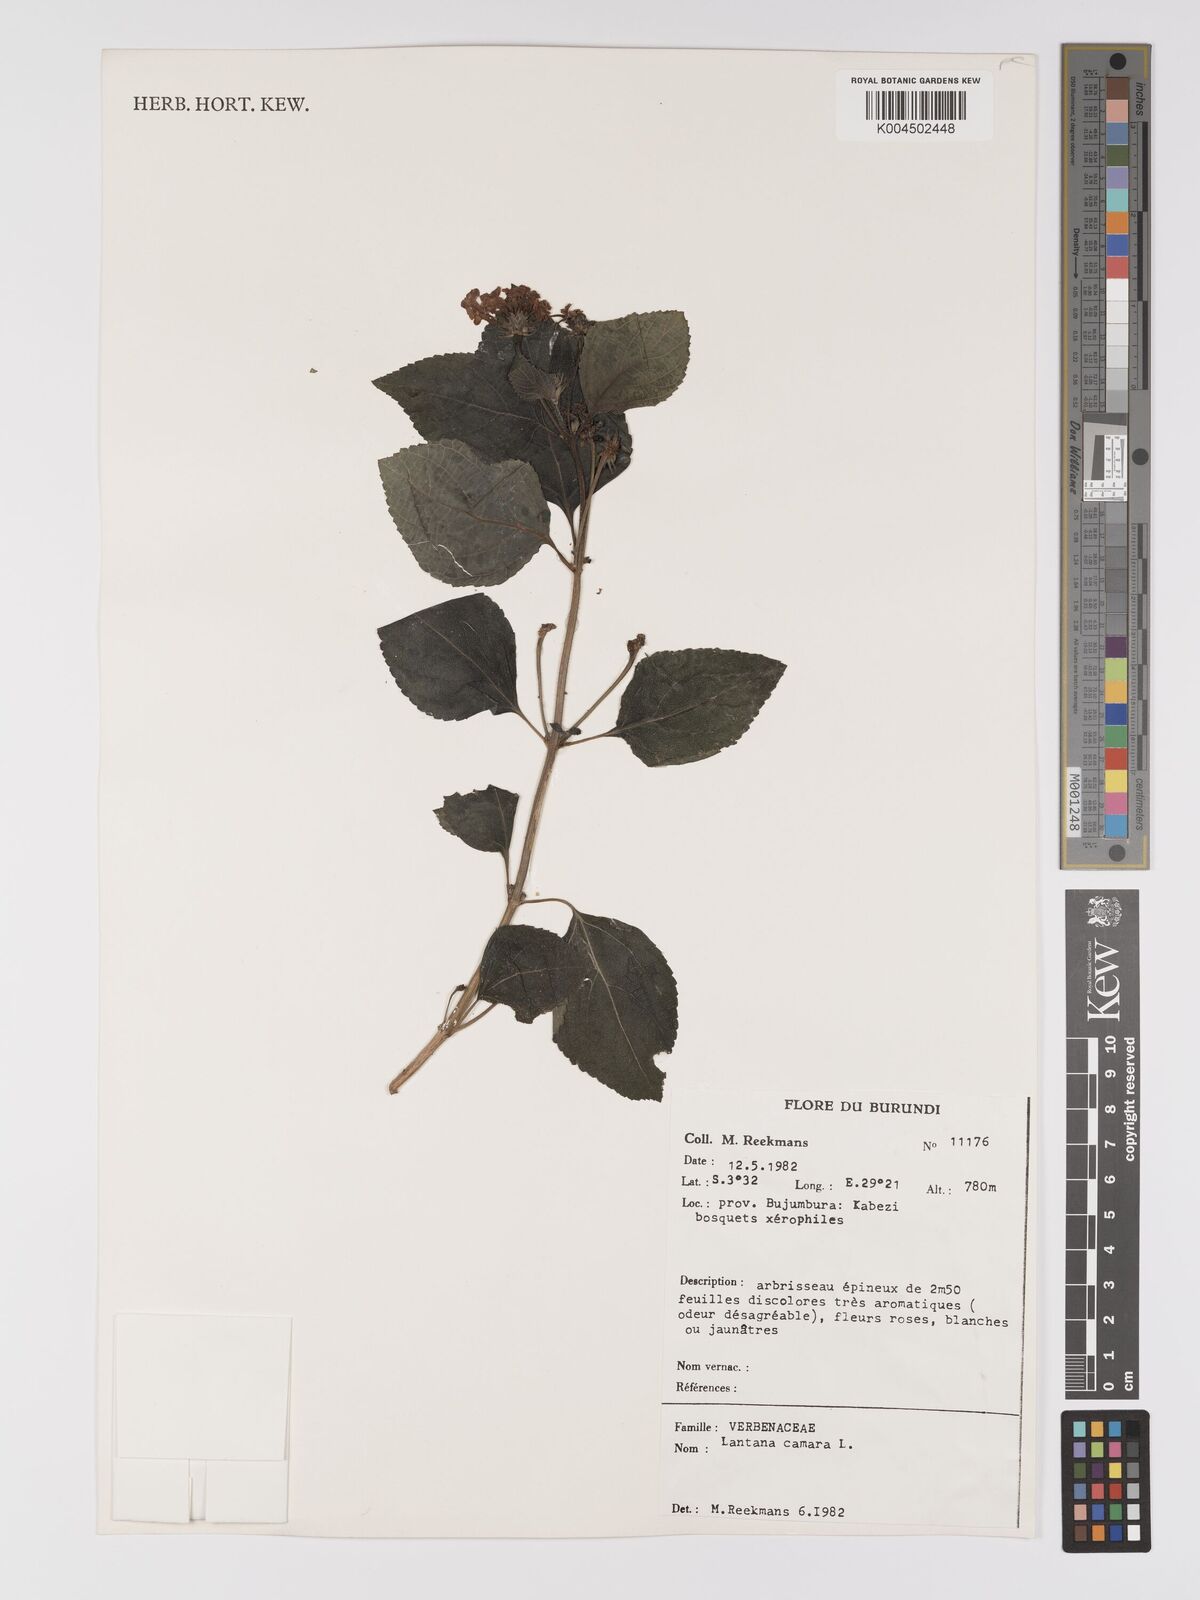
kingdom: Plantae
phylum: Tracheophyta
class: Magnoliopsida
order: Lamiales
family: Verbenaceae
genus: Lantana
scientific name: Lantana camara
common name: Lantana
